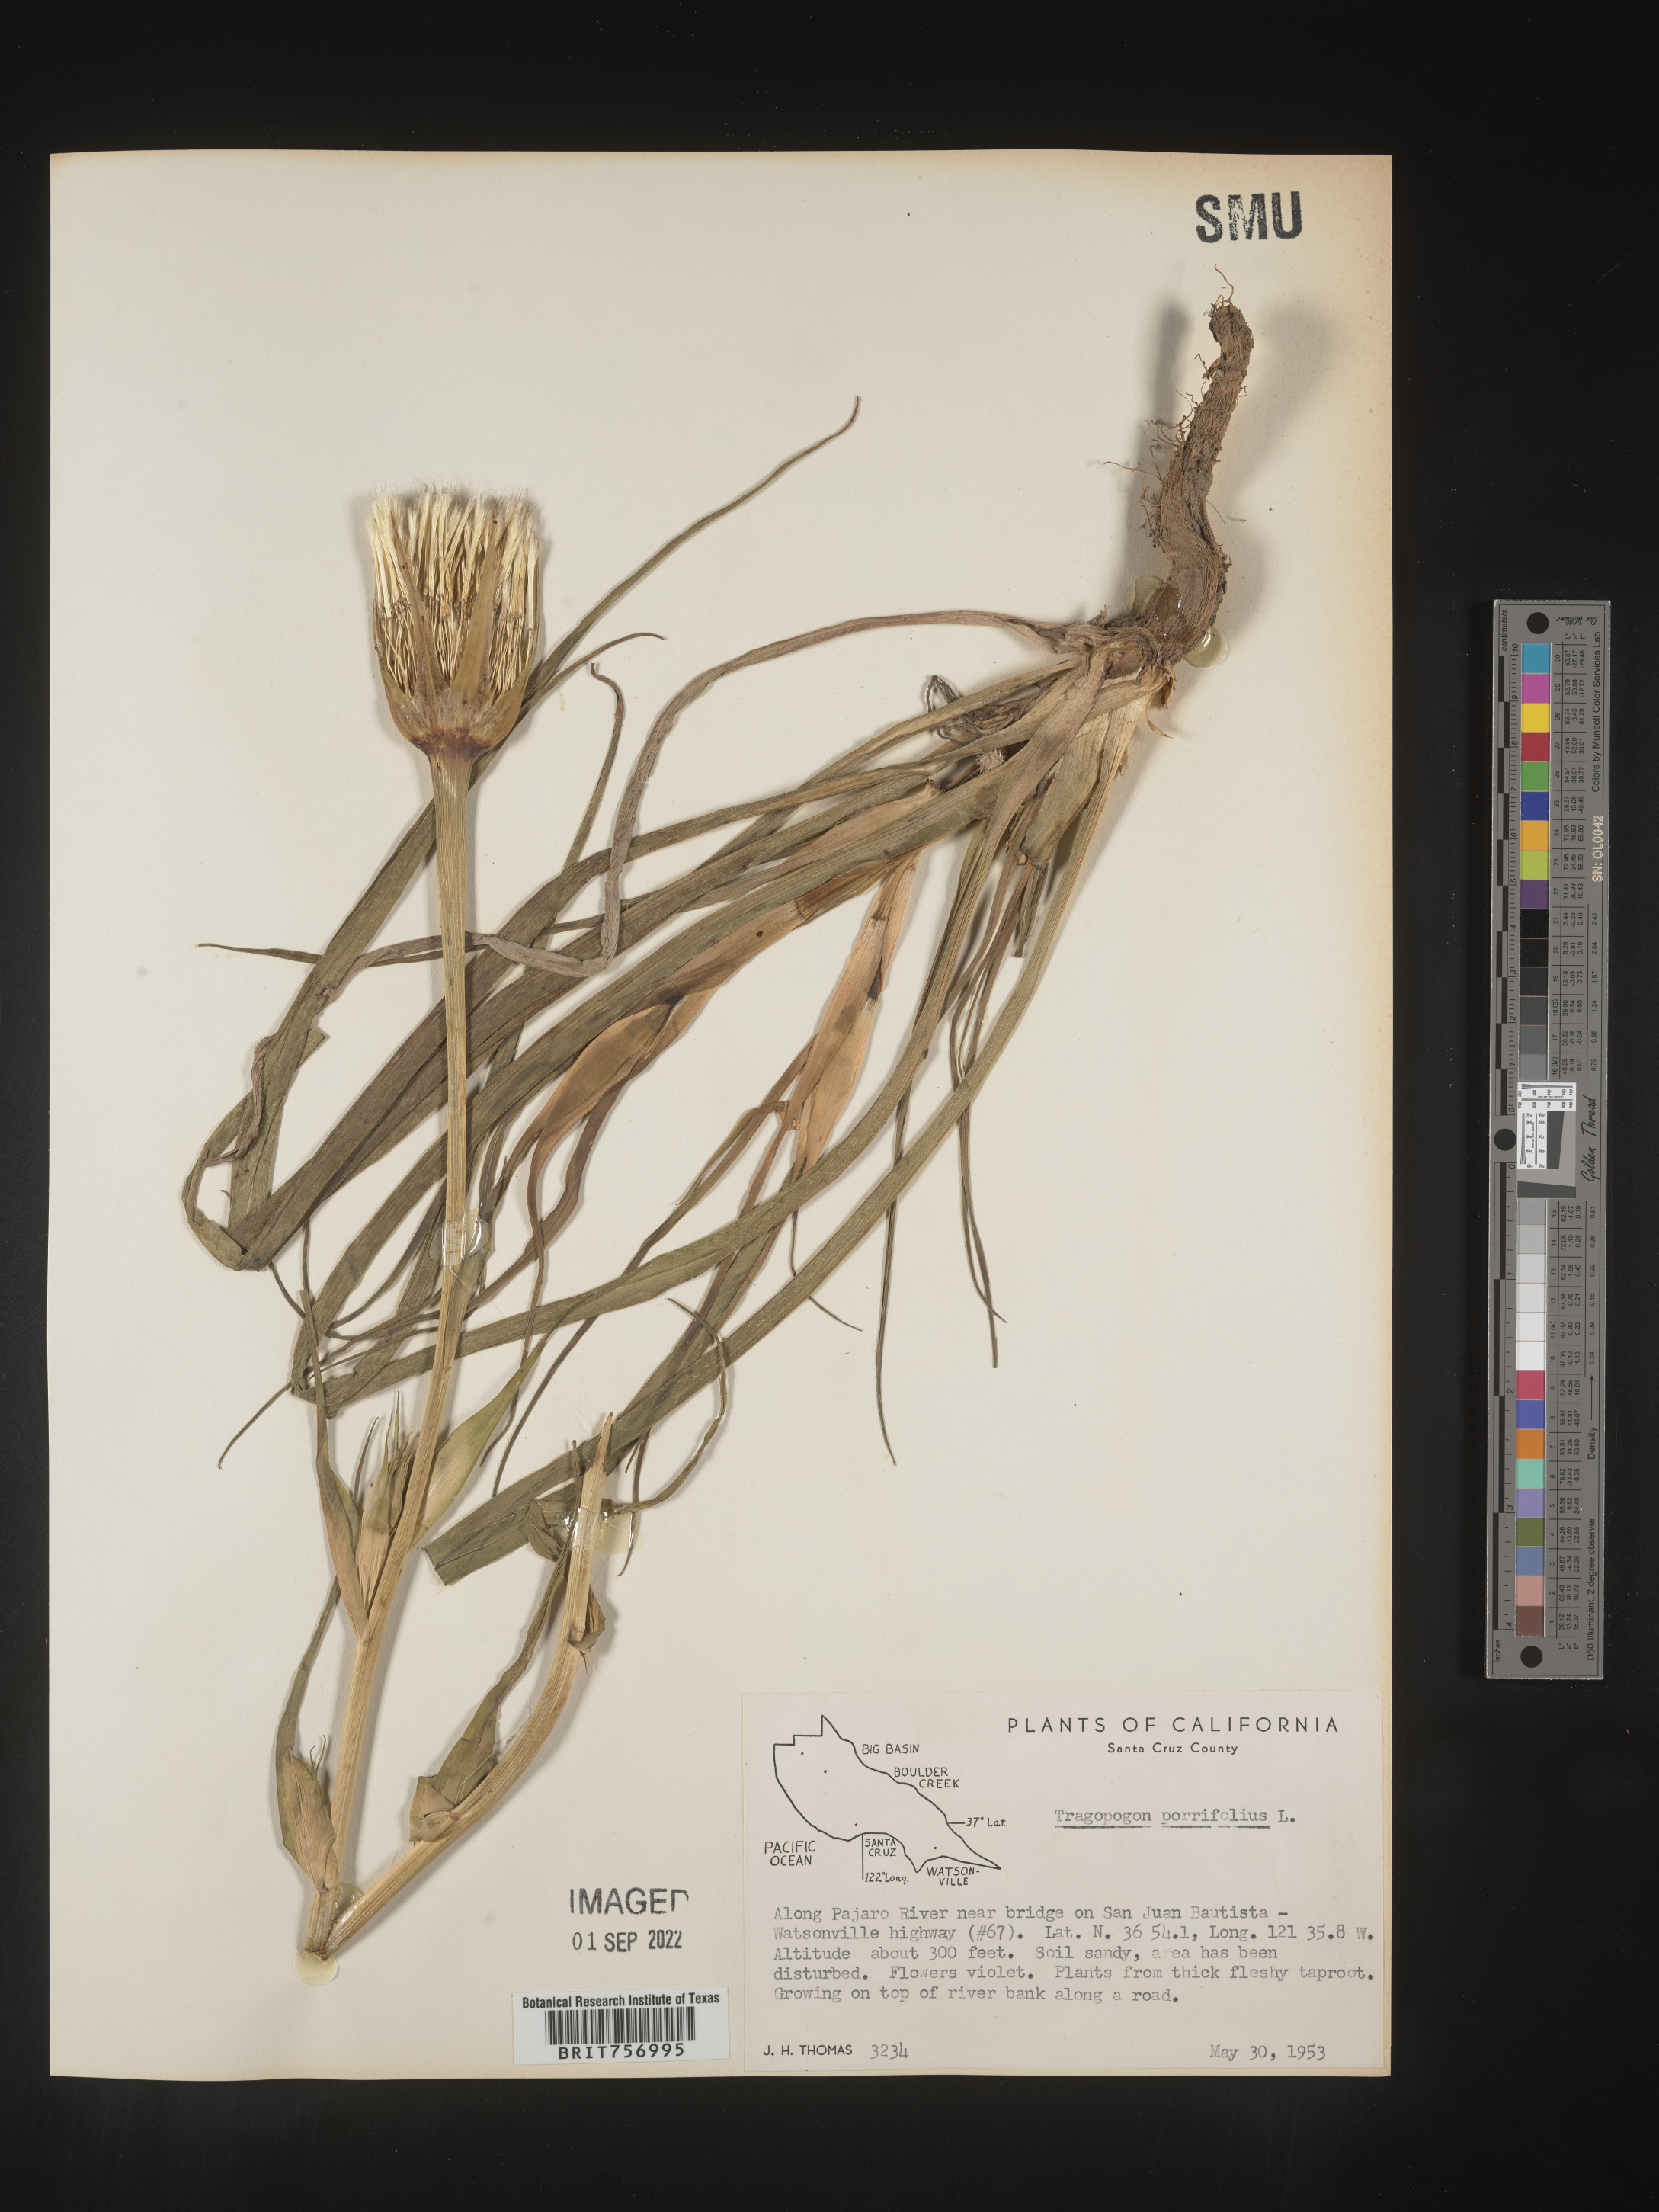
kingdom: Plantae
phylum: Tracheophyta
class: Magnoliopsida
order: Asterales
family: Asteraceae
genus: Tragopogon
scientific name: Tragopogon porrifolius
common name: Salsify
